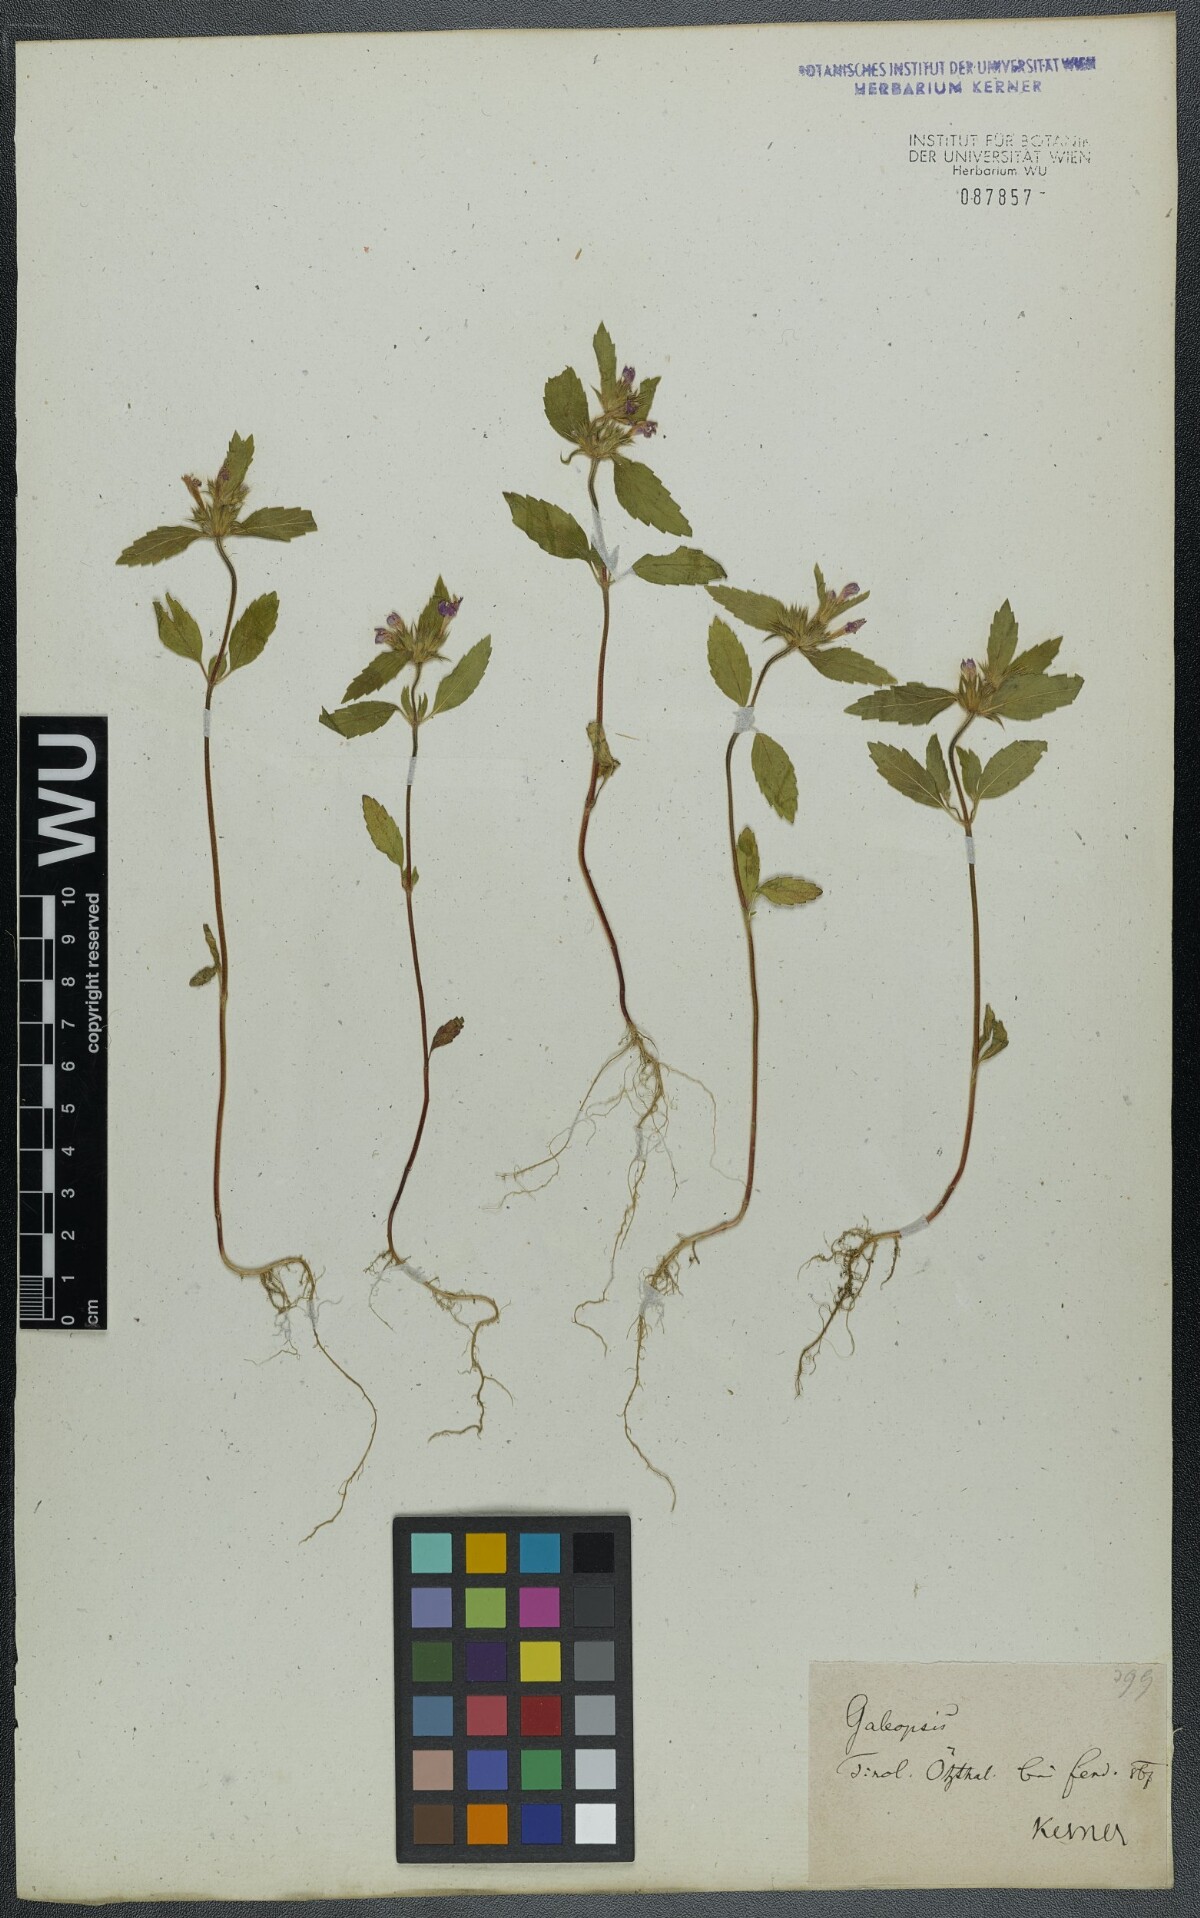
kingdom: Plantae
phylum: Tracheophyta
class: Magnoliopsida
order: Lamiales
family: Lamiaceae
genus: Galeopsis
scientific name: Galeopsis ladanum
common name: Broad-leaved hemp-nettle
